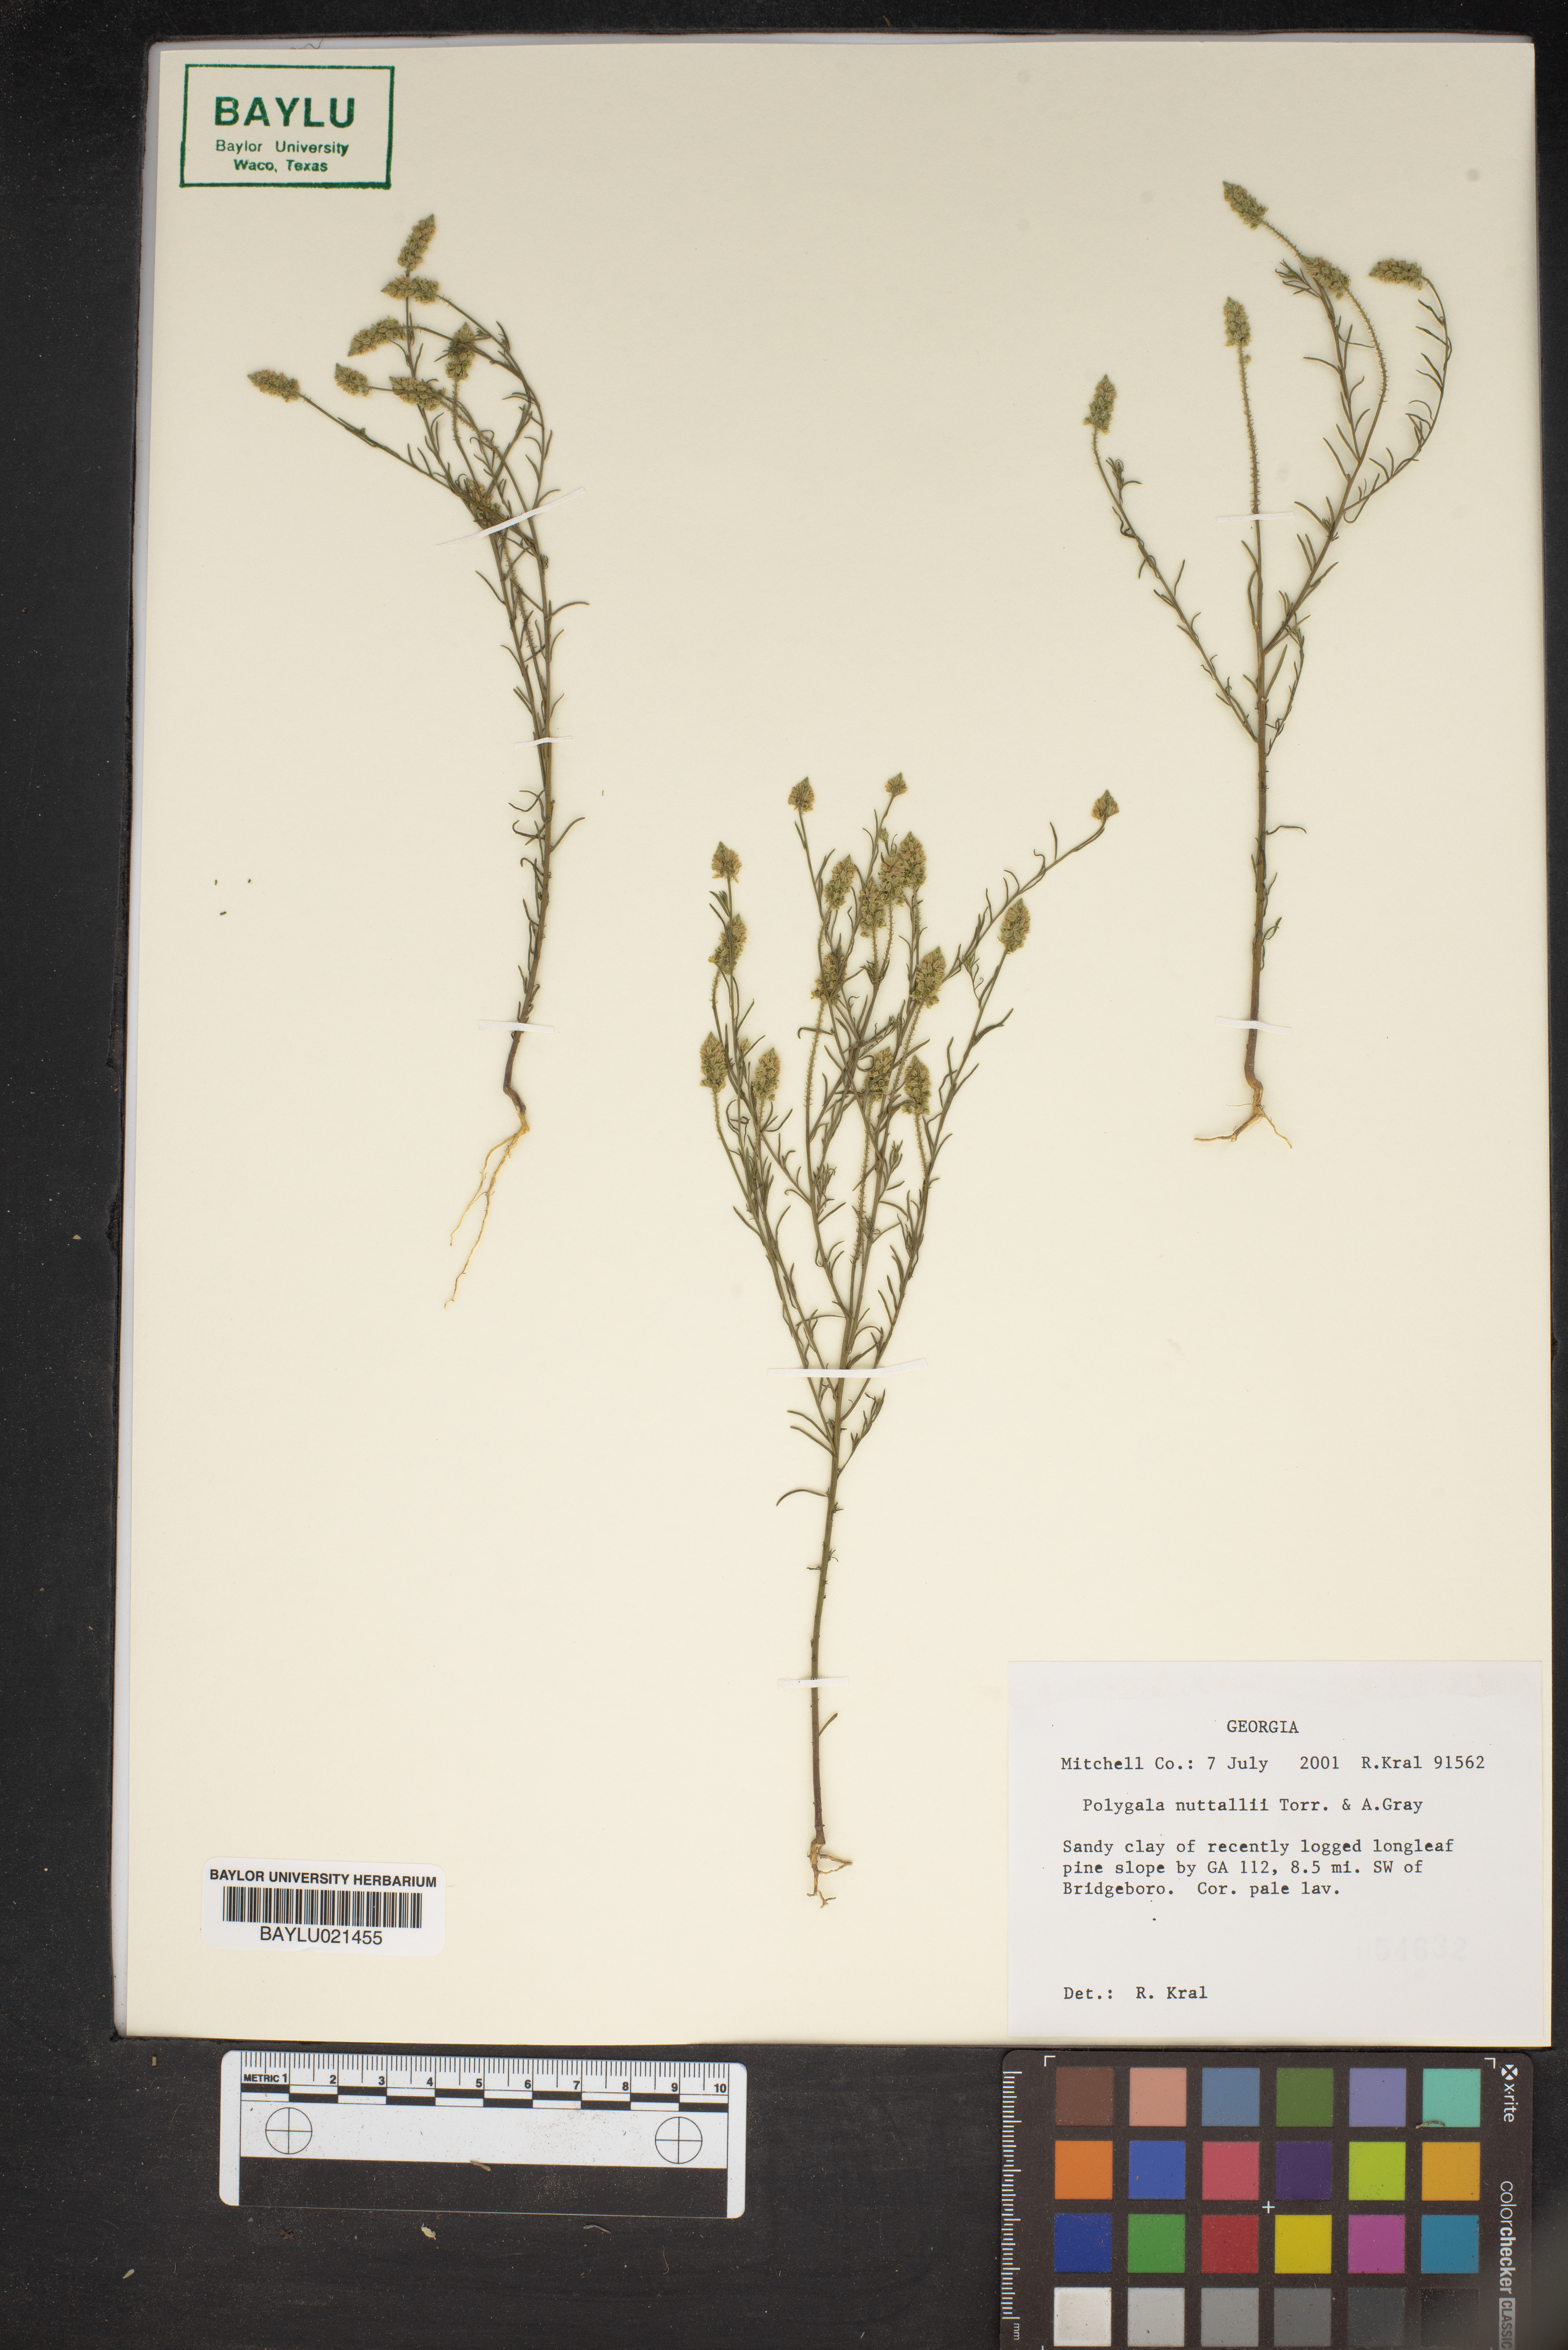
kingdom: Plantae
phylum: Tracheophyta
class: Magnoliopsida
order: Fabales
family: Polygalaceae
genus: Polygala
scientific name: Polygala nuttallii
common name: Nuttall's milkwort
